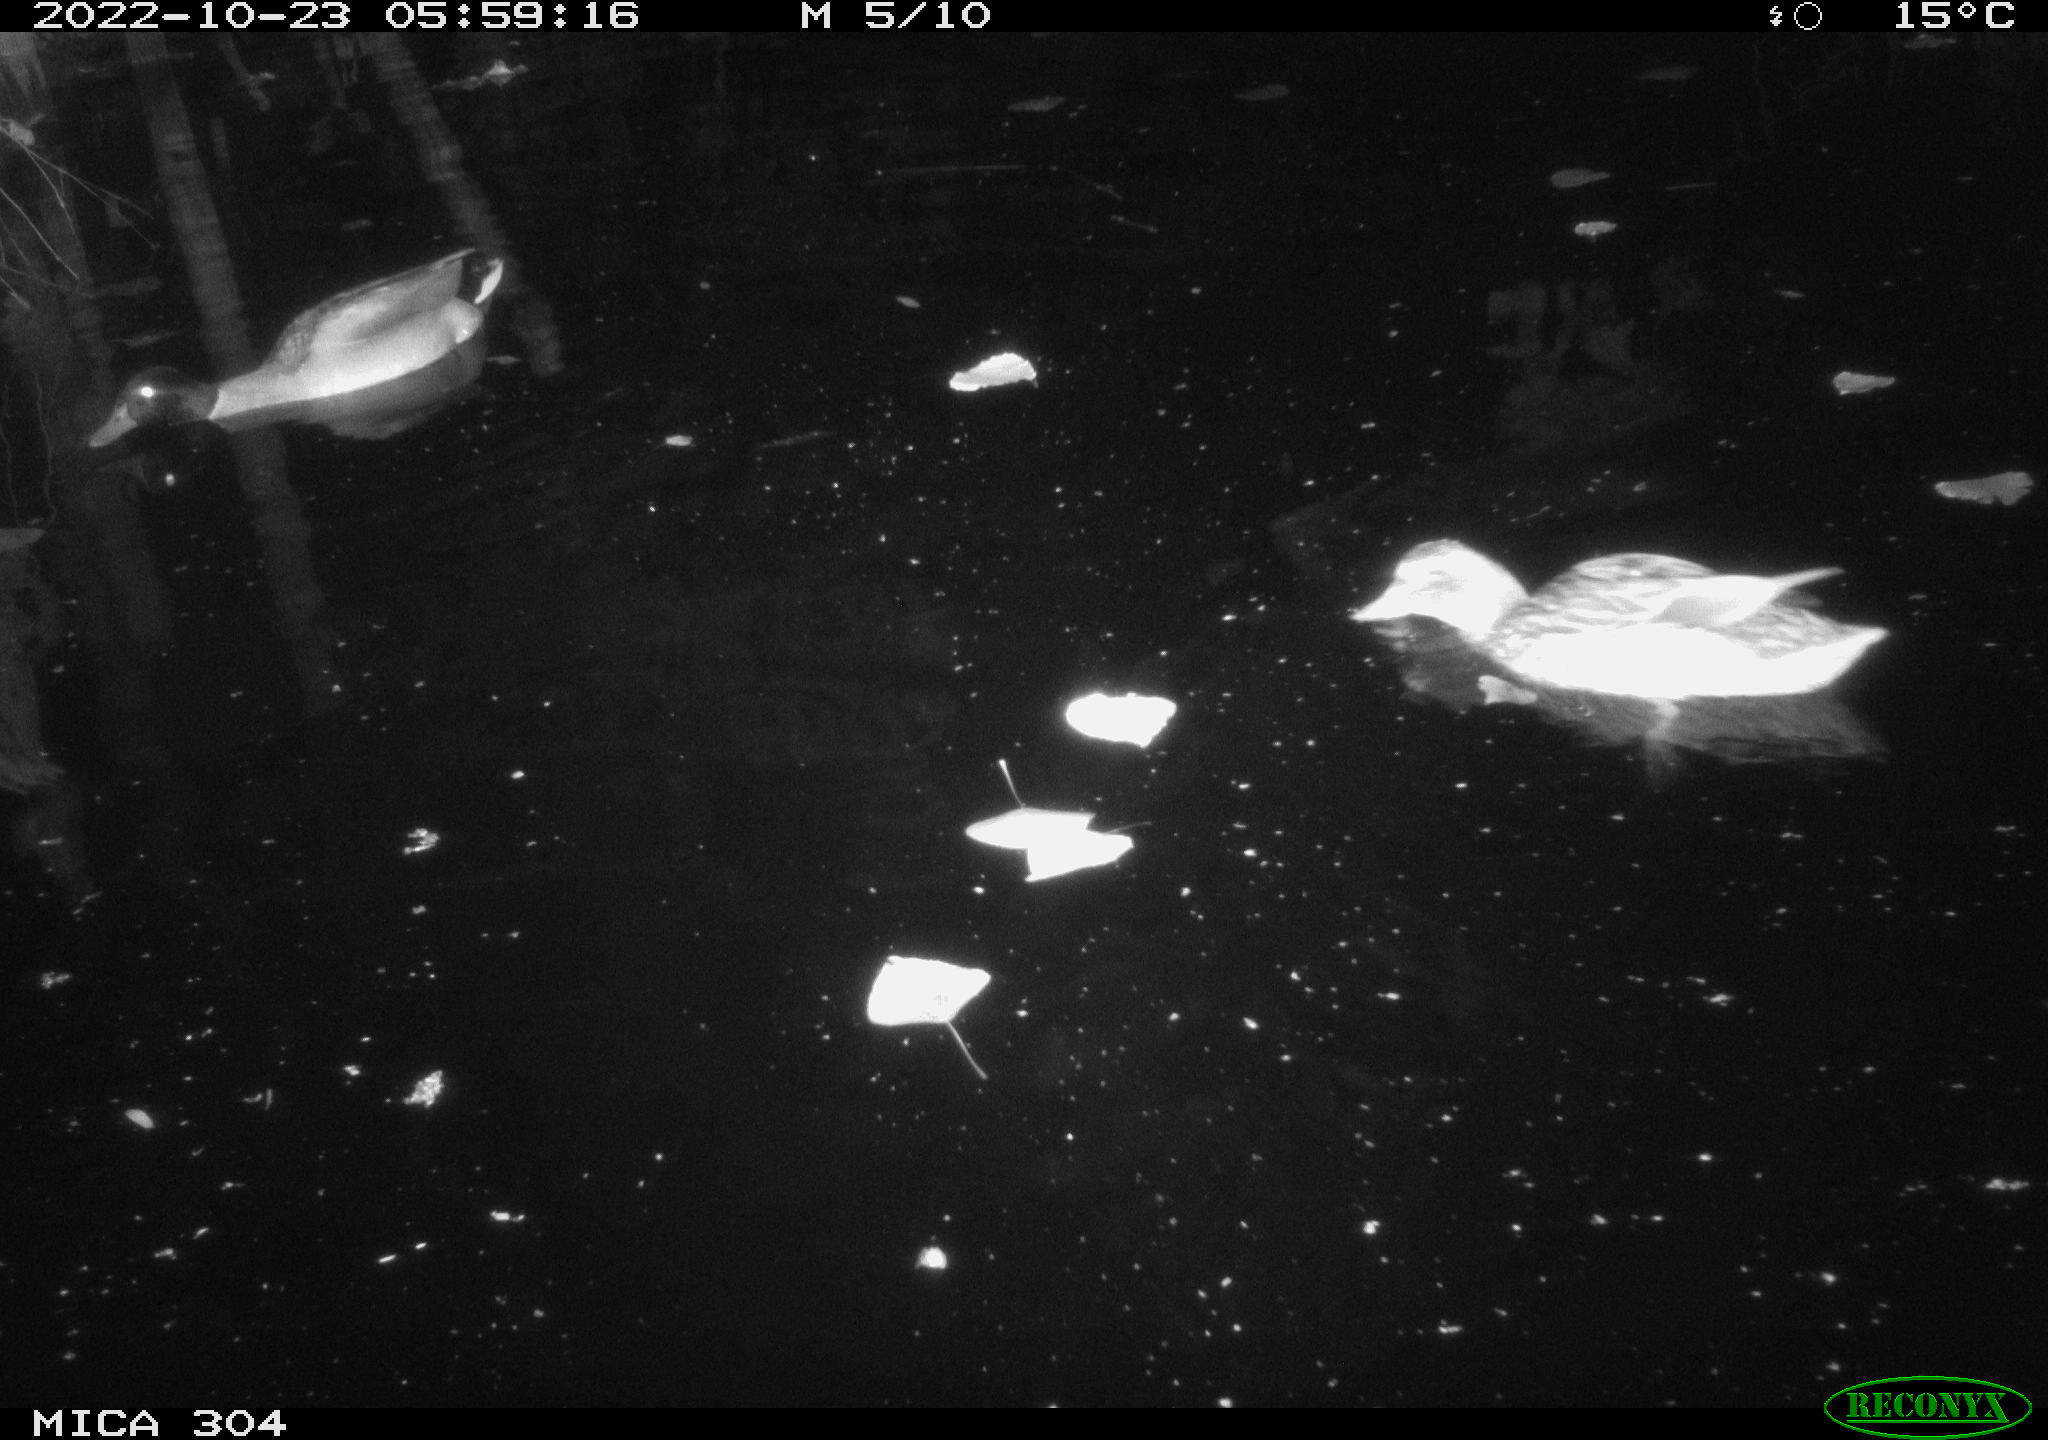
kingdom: Animalia
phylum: Chordata
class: Mammalia
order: Rodentia
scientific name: Rodentia
